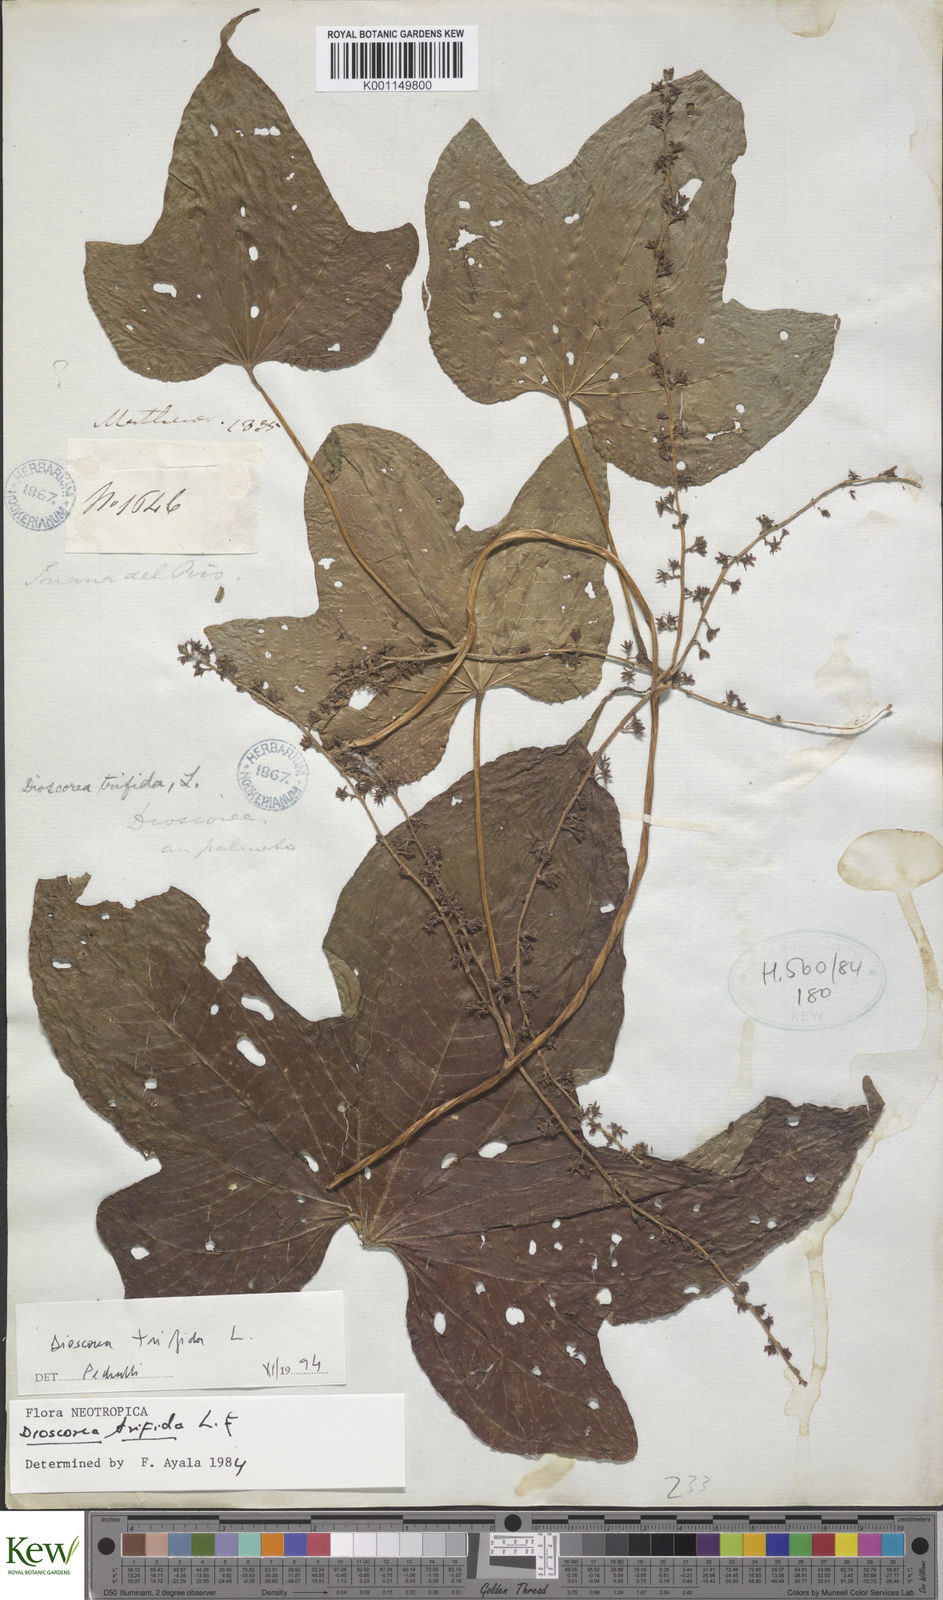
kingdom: Plantae
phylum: Tracheophyta
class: Liliopsida
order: Dioscoreales
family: Dioscoreaceae
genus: Dioscorea
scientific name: Dioscorea trifida
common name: Cush-cush
